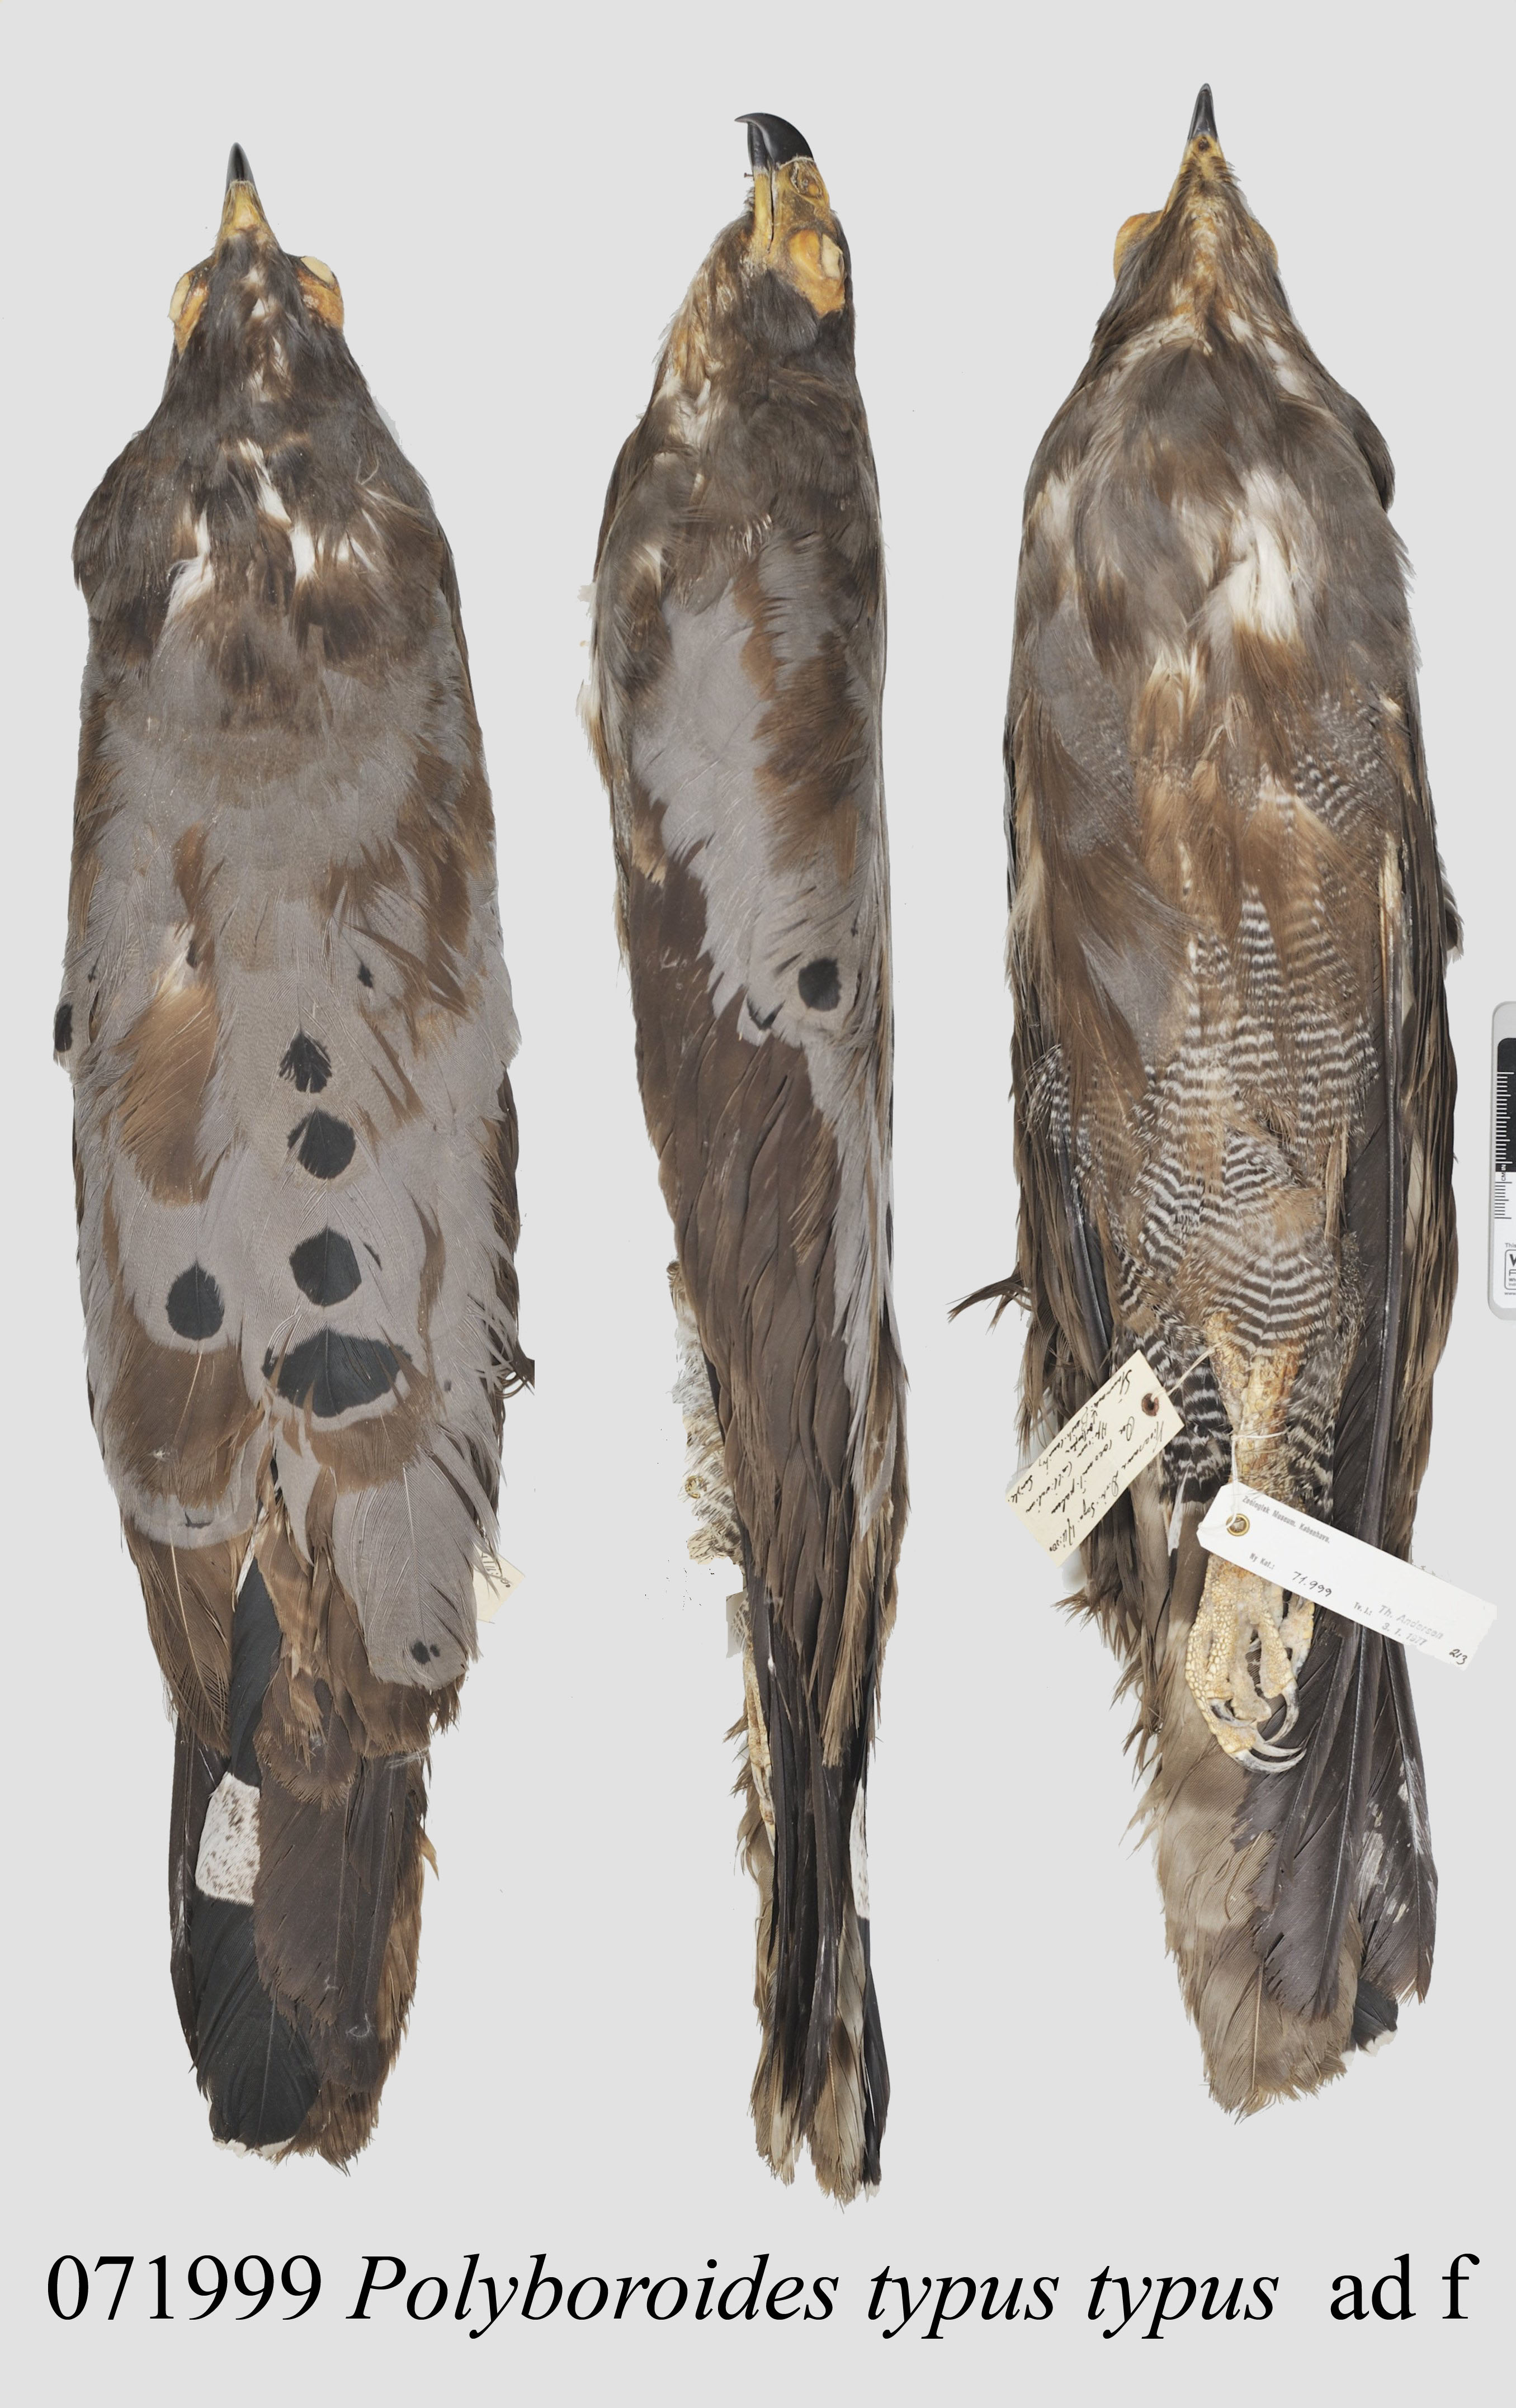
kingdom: Animalia
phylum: Chordata
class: Aves
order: Accipitriformes
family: Accipitridae
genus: Polyboroides
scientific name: Polyboroides typus
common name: African harrier-hawk
